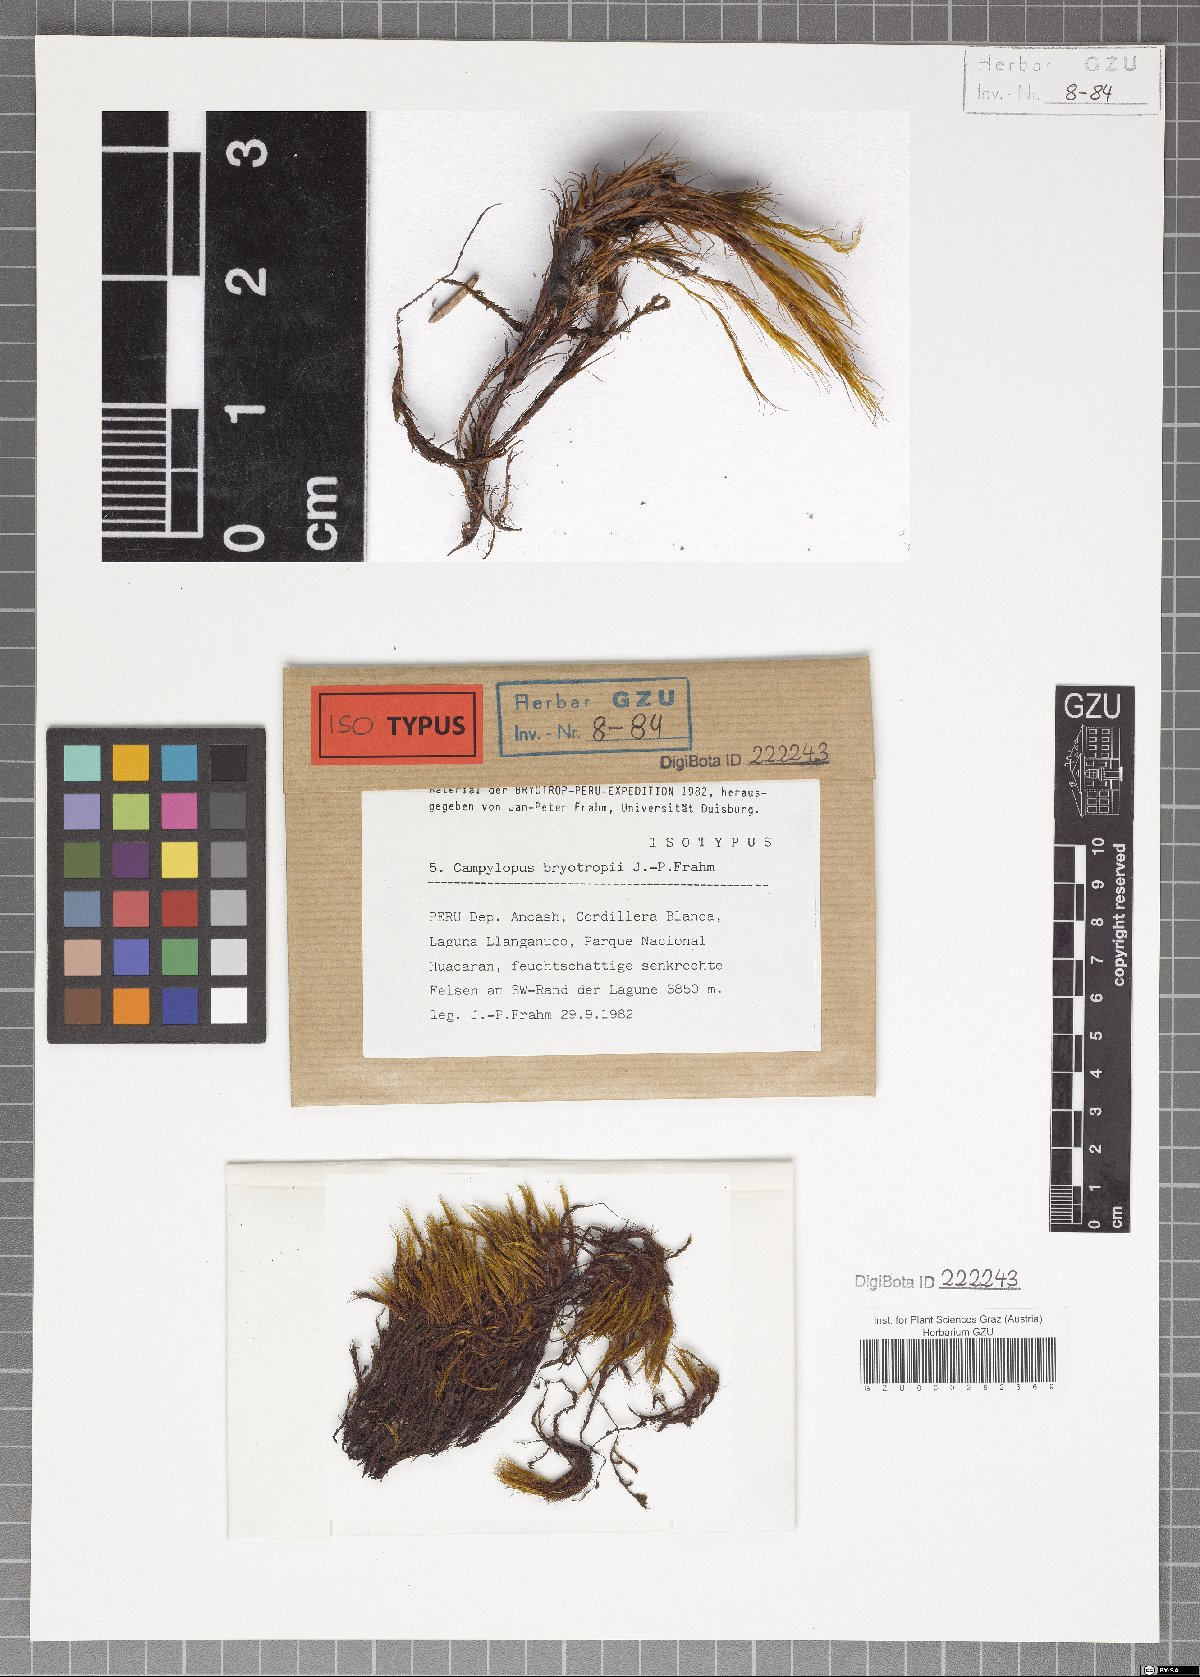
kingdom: Plantae
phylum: Bryophyta
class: Bryopsida
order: Dicranales
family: Leucobryaceae
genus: Campylopus
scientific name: Campylopus bryotropii
